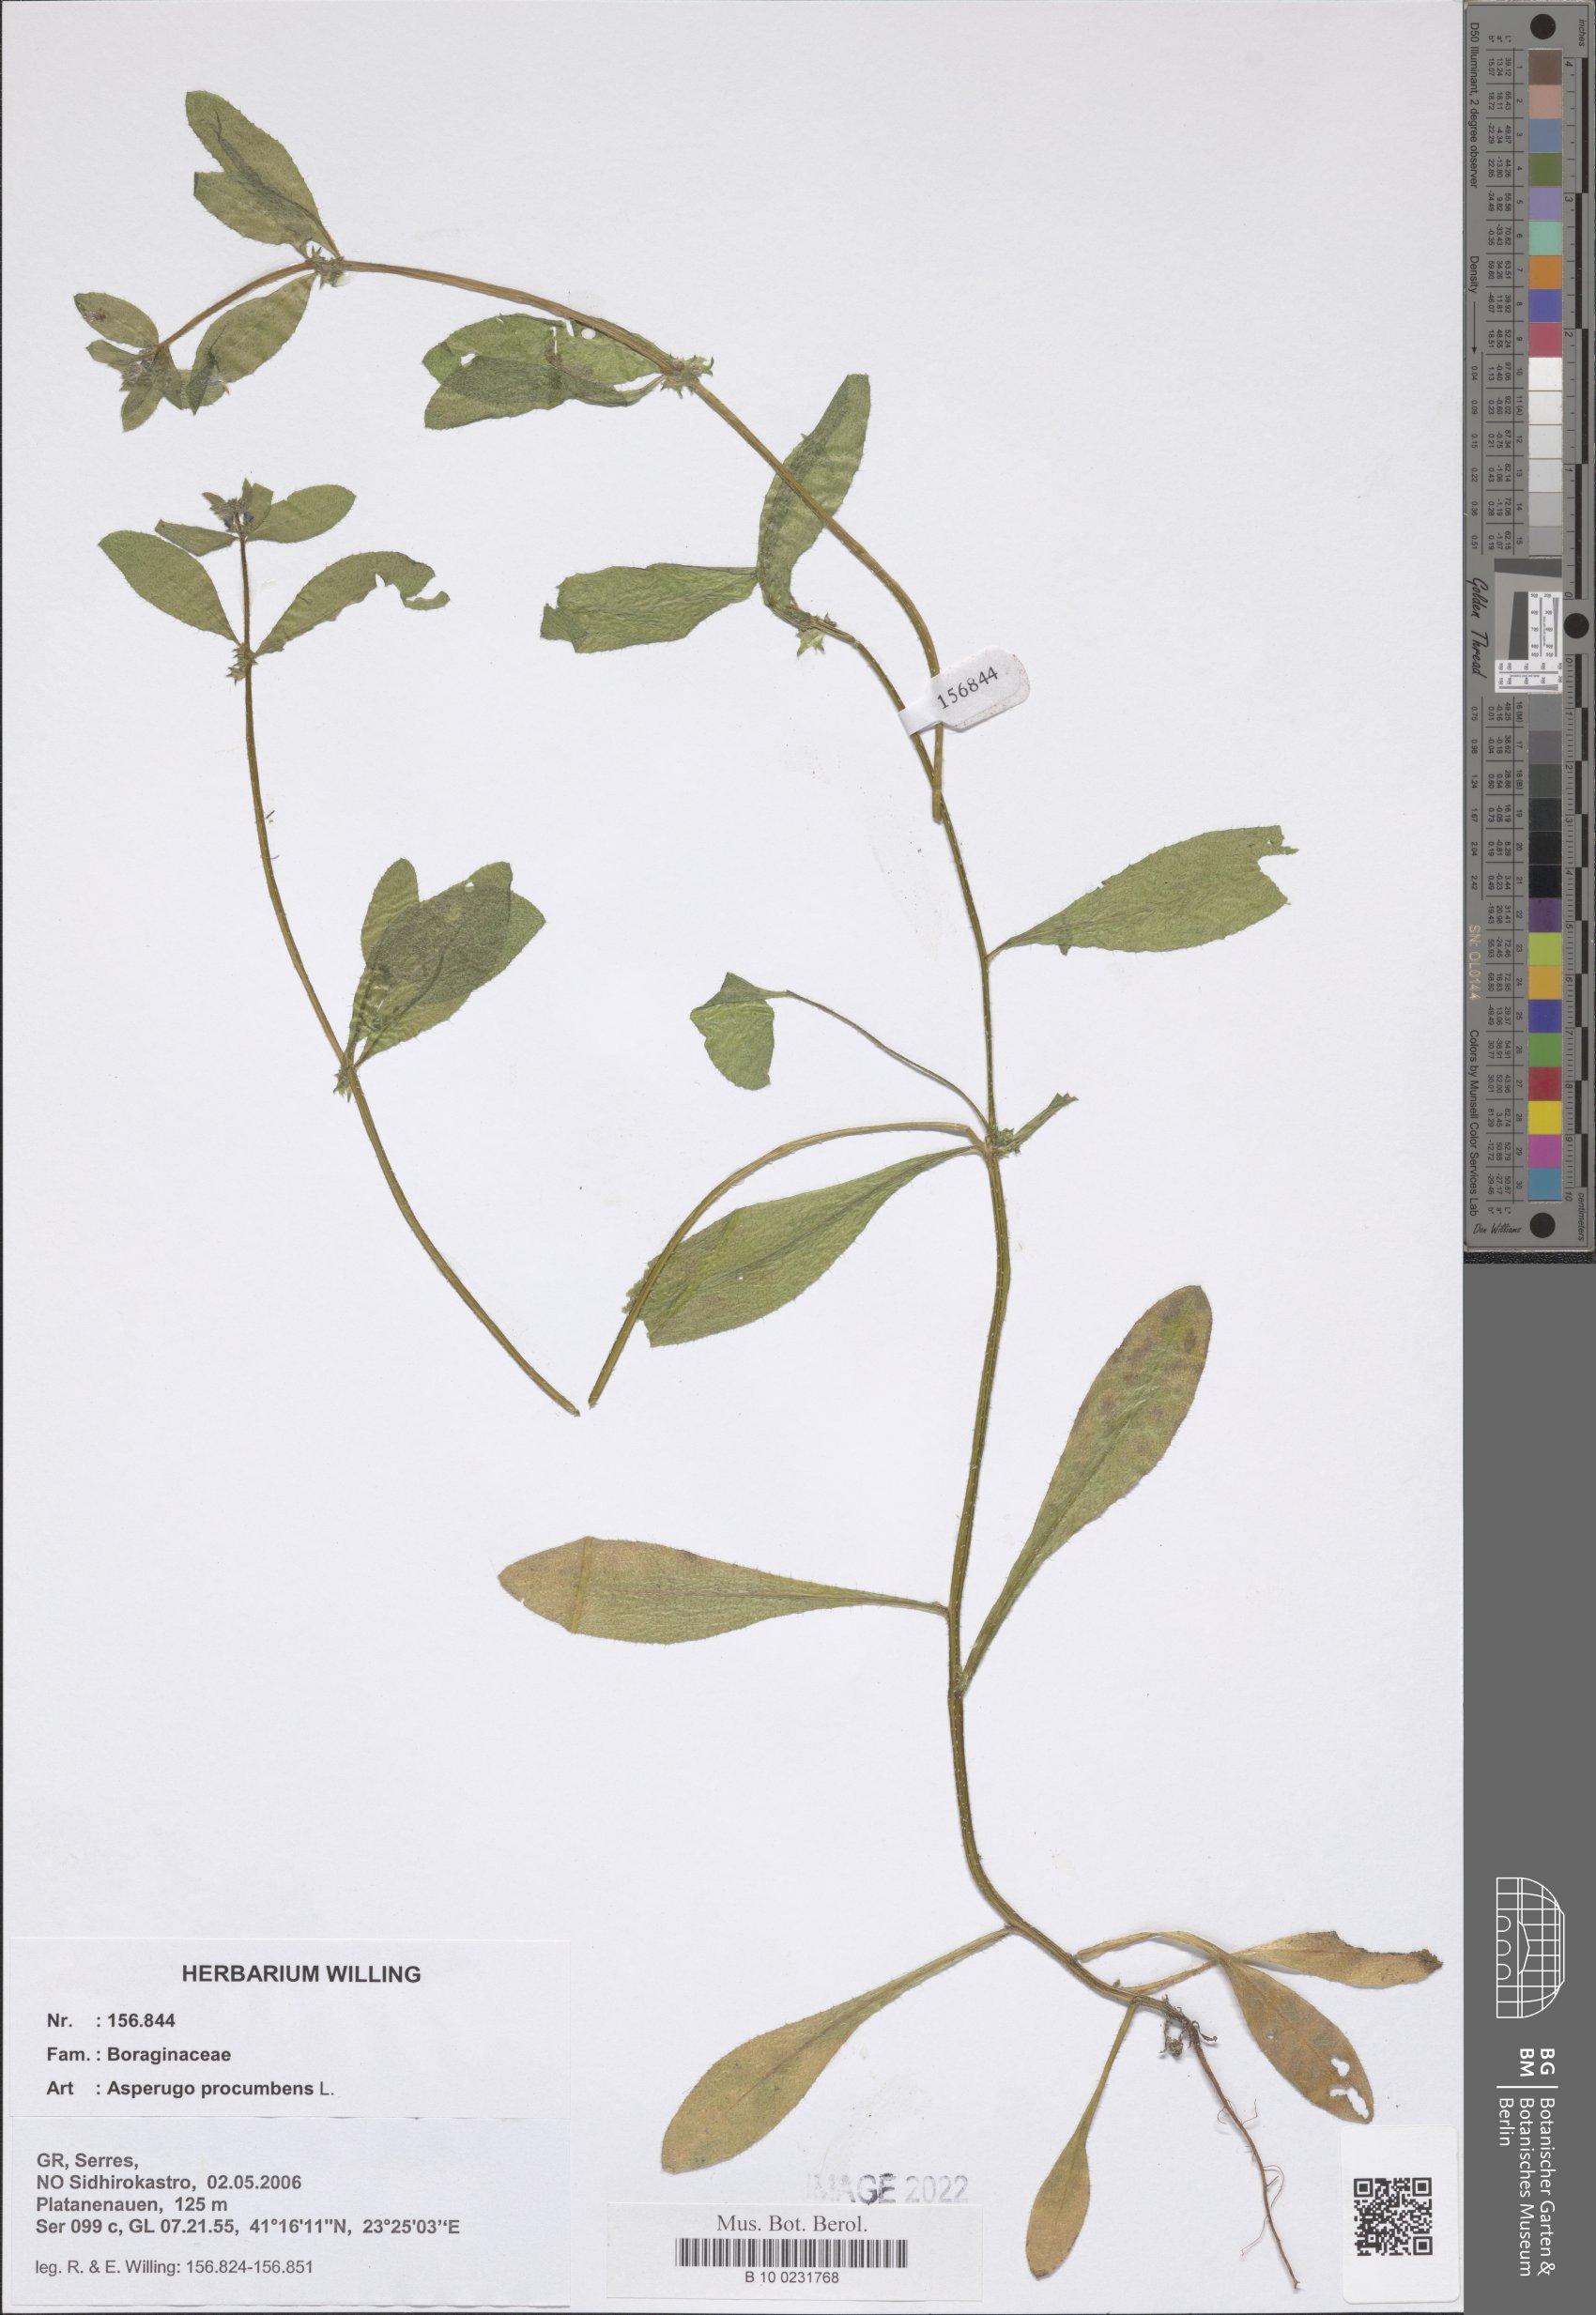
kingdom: Plantae
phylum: Tracheophyta
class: Magnoliopsida
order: Boraginales
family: Boraginaceae
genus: Asperugo
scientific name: Asperugo procumbens
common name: Madwort
